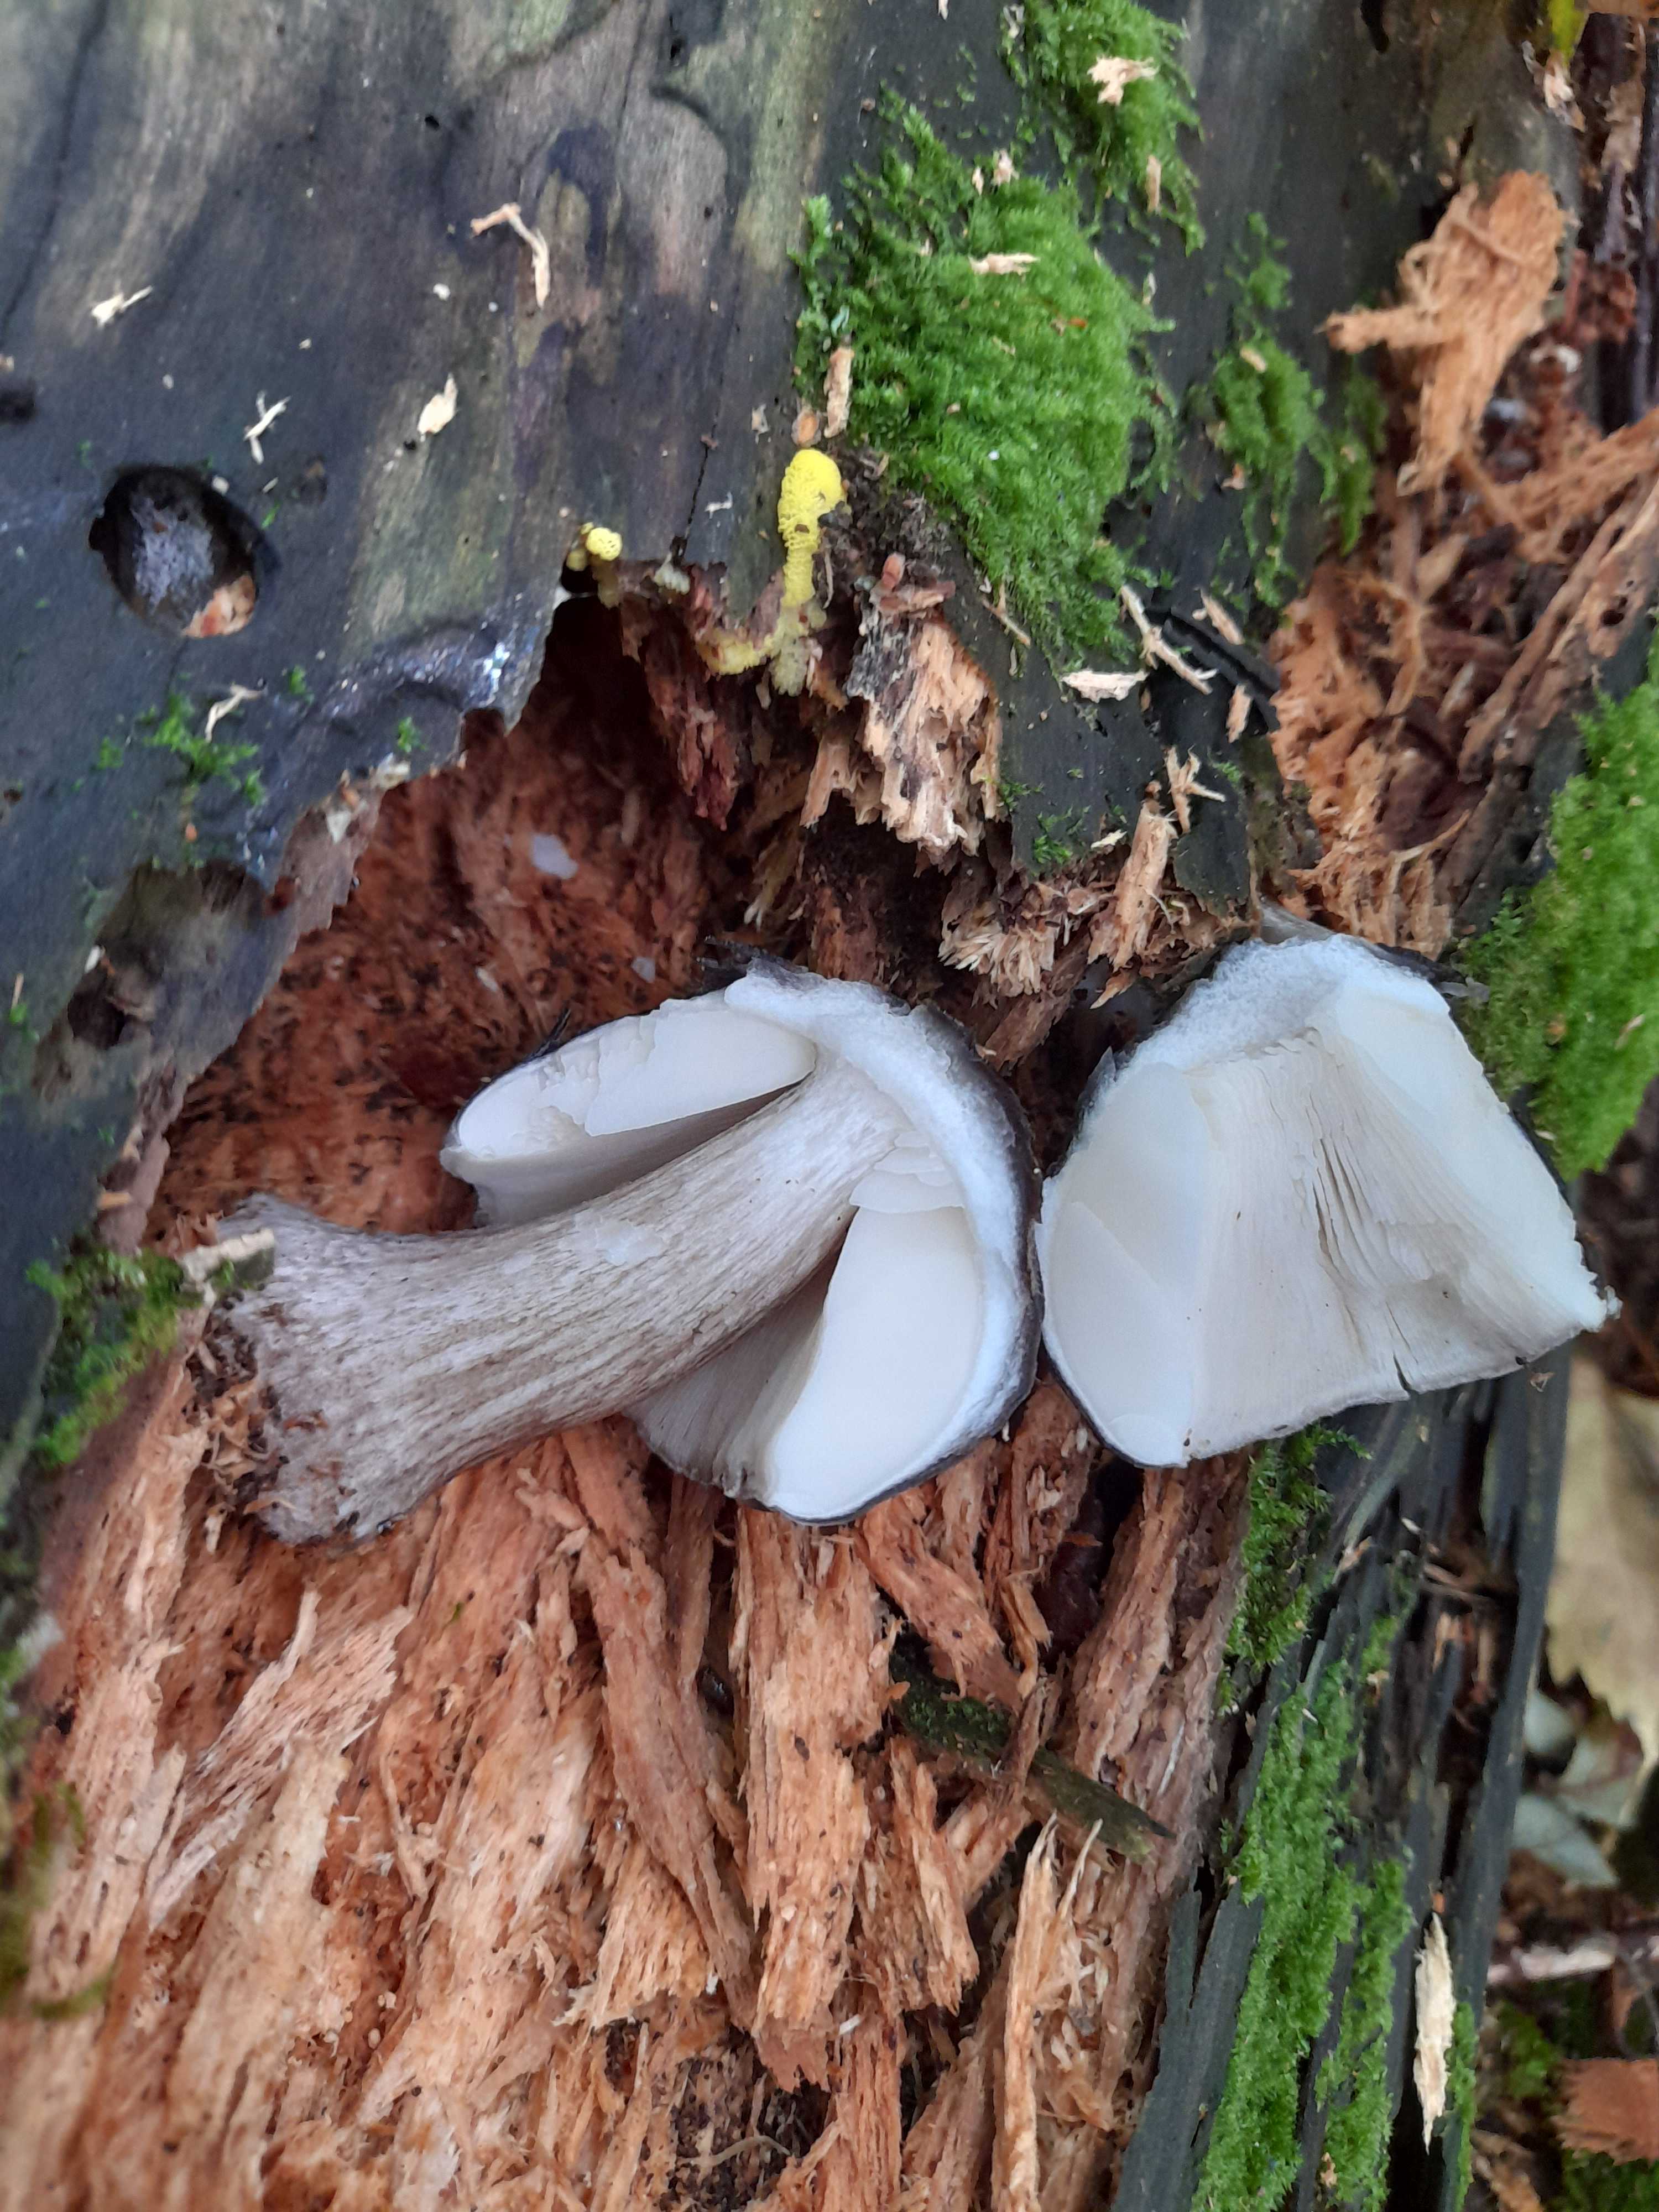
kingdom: Fungi
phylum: Basidiomycota
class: Agaricomycetes
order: Agaricales
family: Pluteaceae
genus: Pluteus
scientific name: Pluteus cervinus
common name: sodfarvet skærmhat
